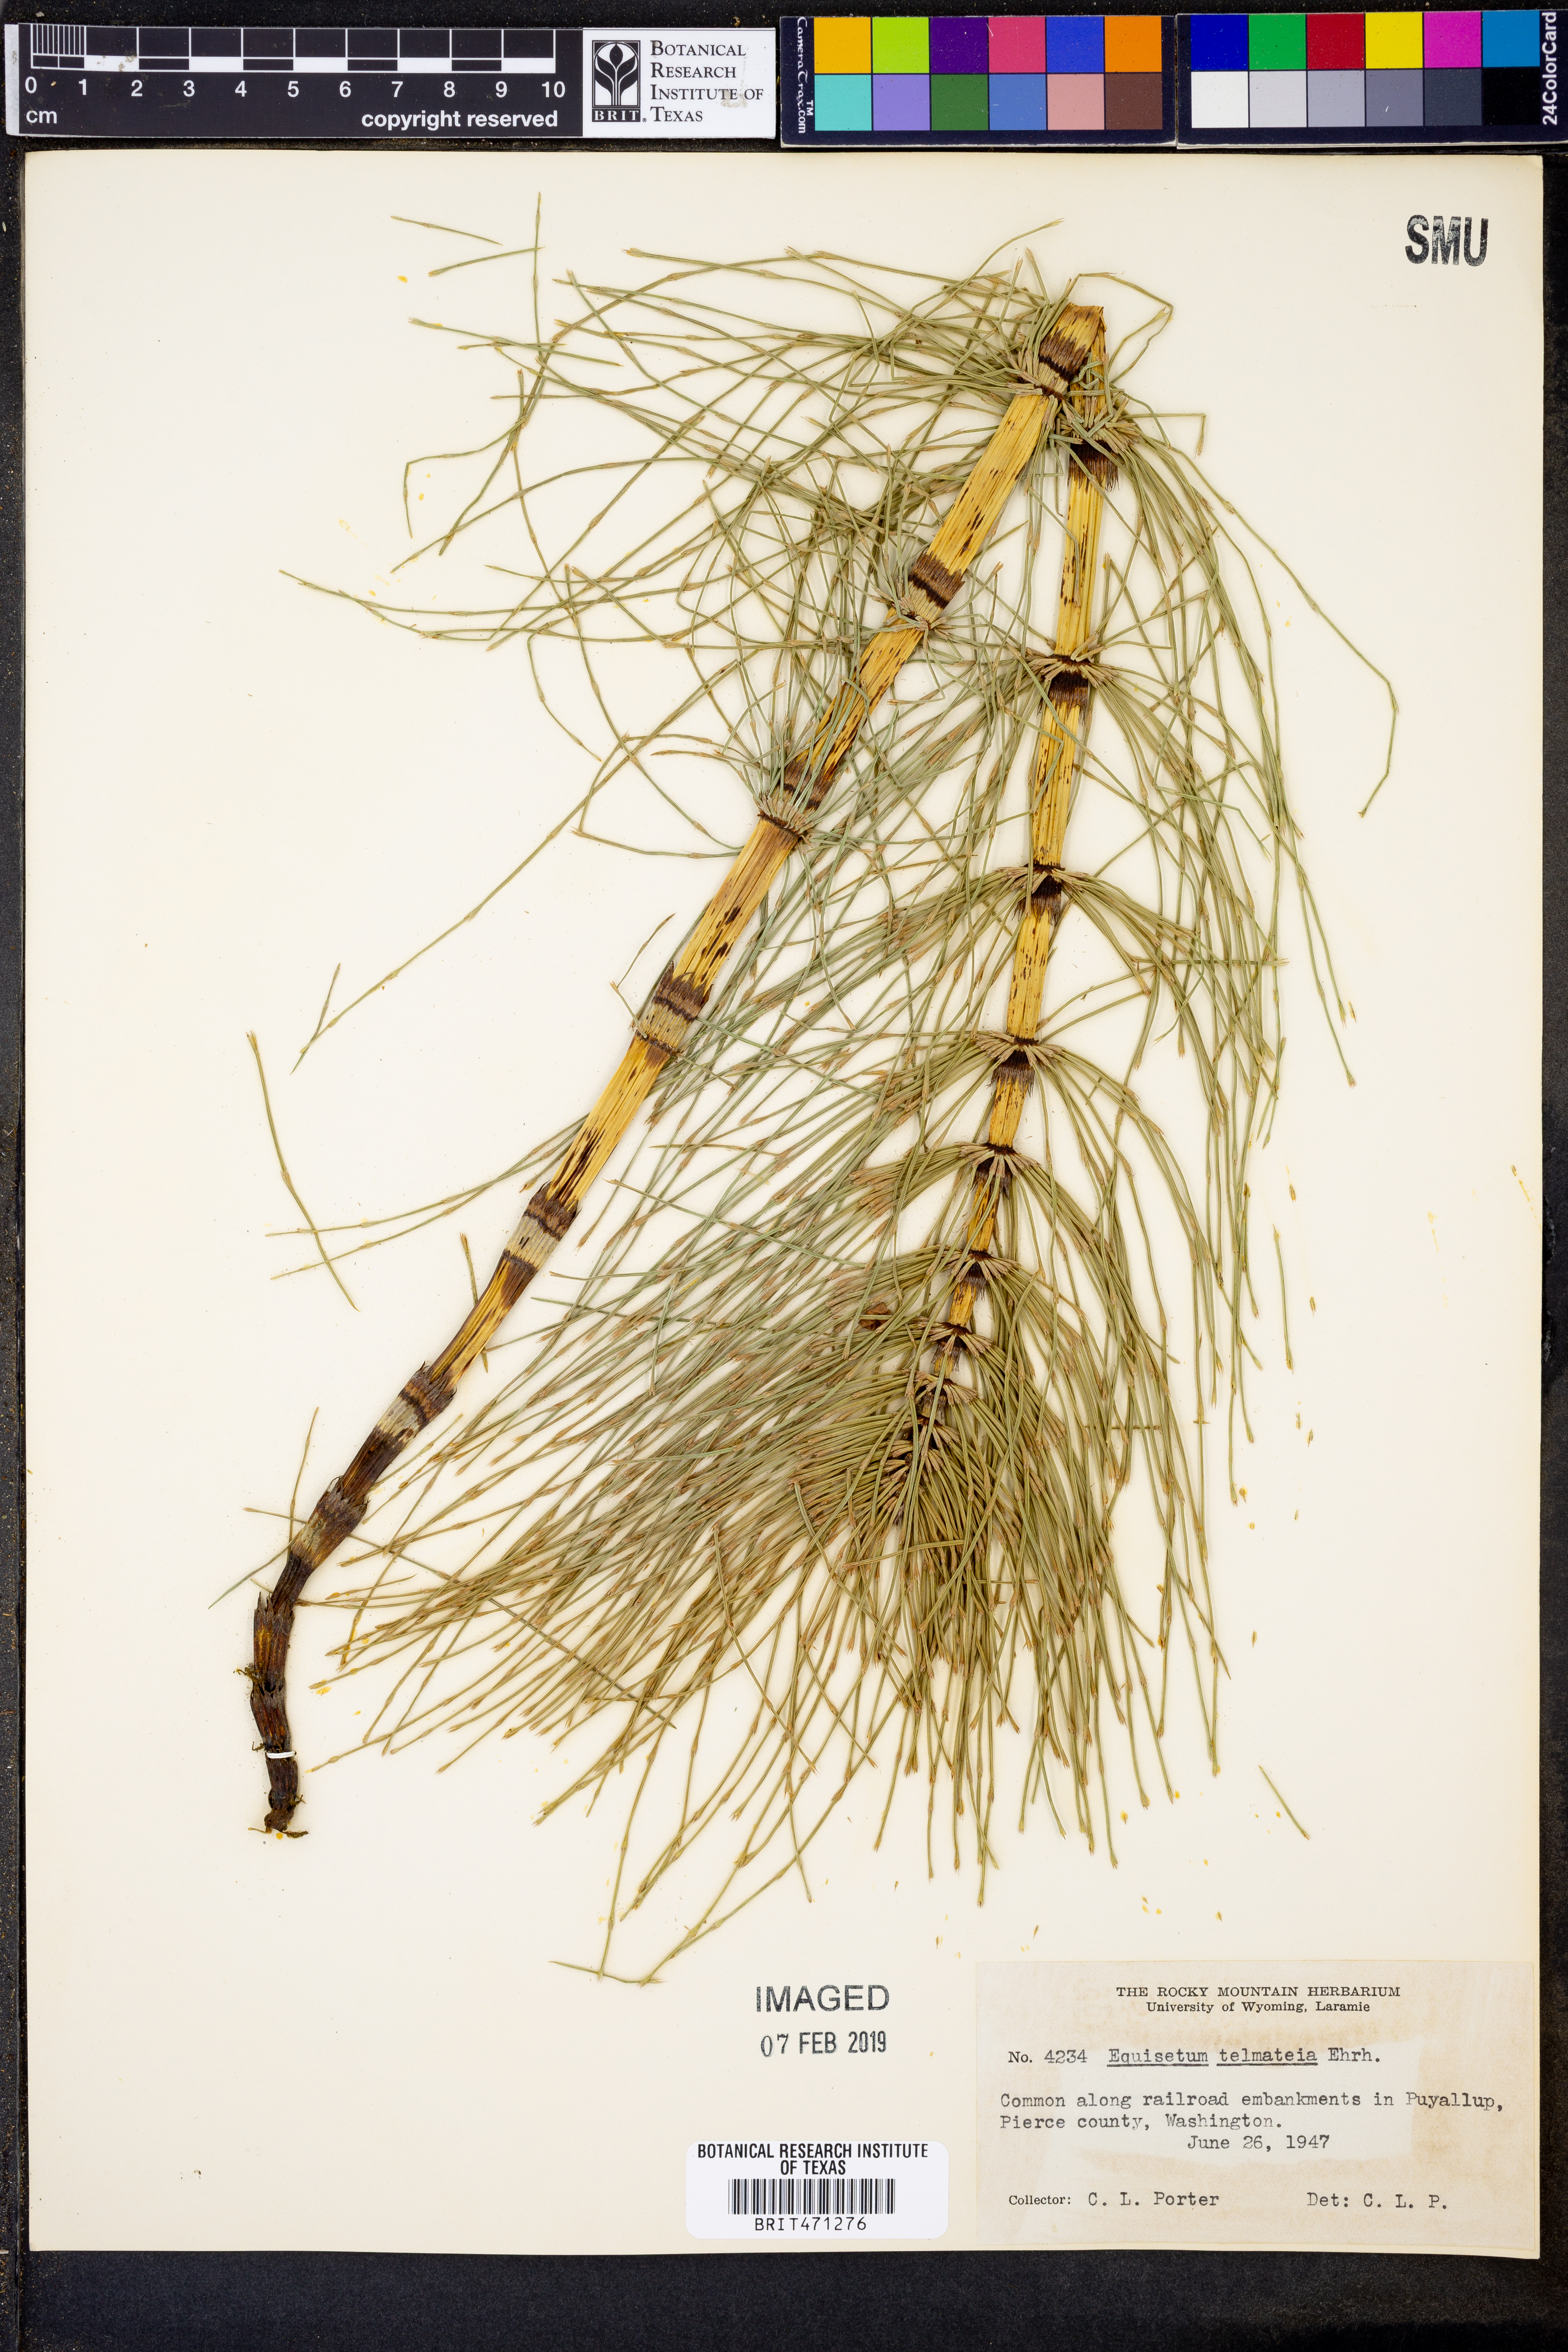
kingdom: Plantae
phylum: Tracheophyta
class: Polypodiopsida
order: Equisetales
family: Equisetaceae
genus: Equisetum
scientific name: Equisetum telmateia
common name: Great horsetail
